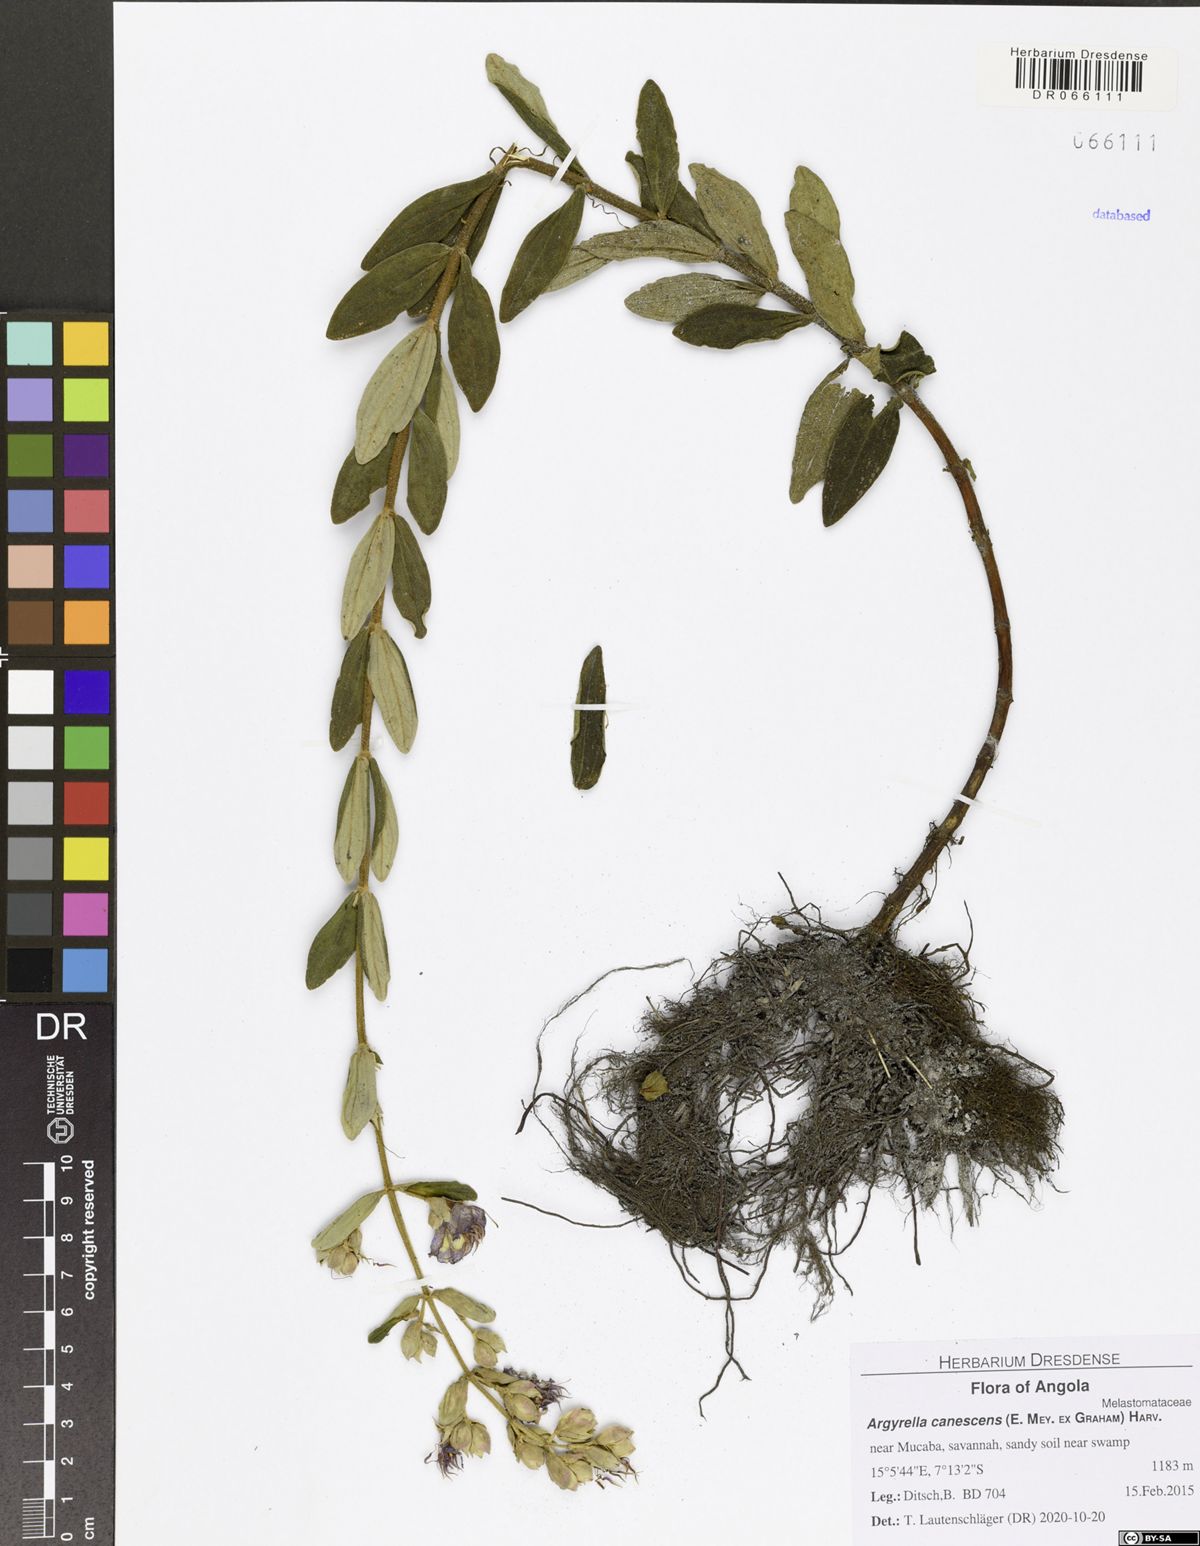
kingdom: Plantae
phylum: Tracheophyta
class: Magnoliopsida
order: Myrtales
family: Melastomataceae
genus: Argyrella
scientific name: Argyrella canescens
